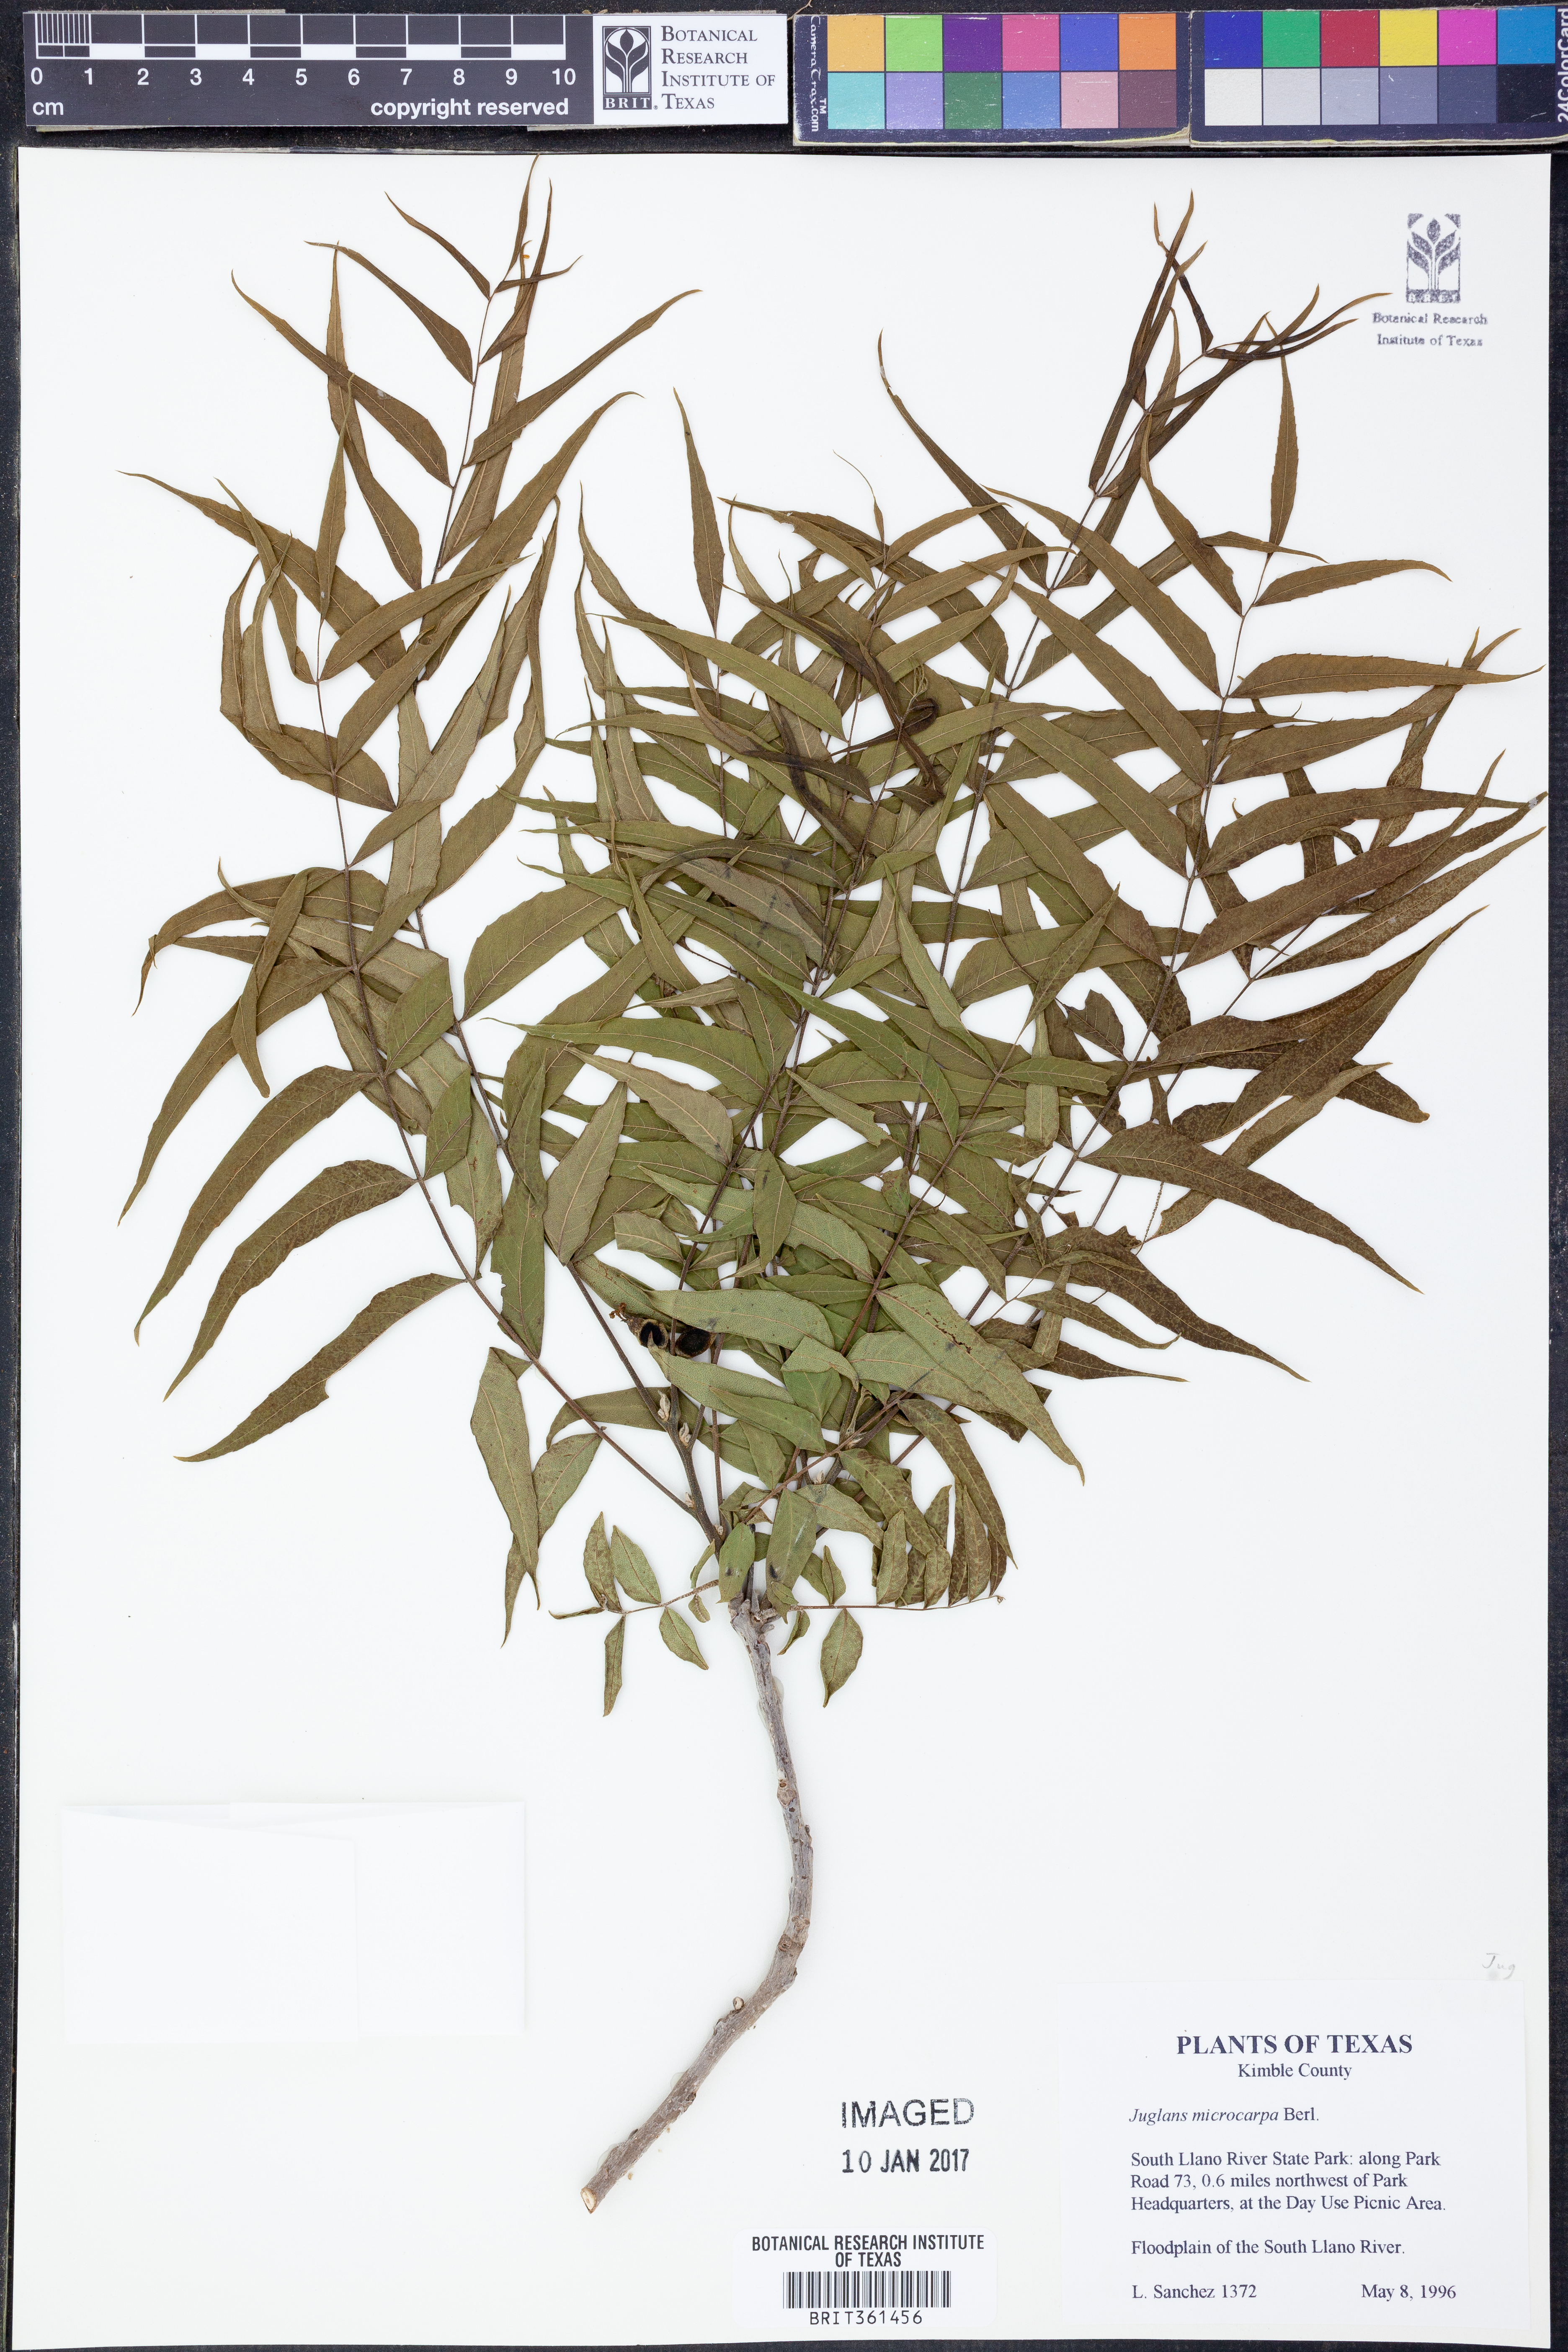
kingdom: Plantae
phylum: Tracheophyta
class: Magnoliopsida
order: Fagales
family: Juglandaceae
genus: Juglans
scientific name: Juglans microcarpa
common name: Texas walnut
